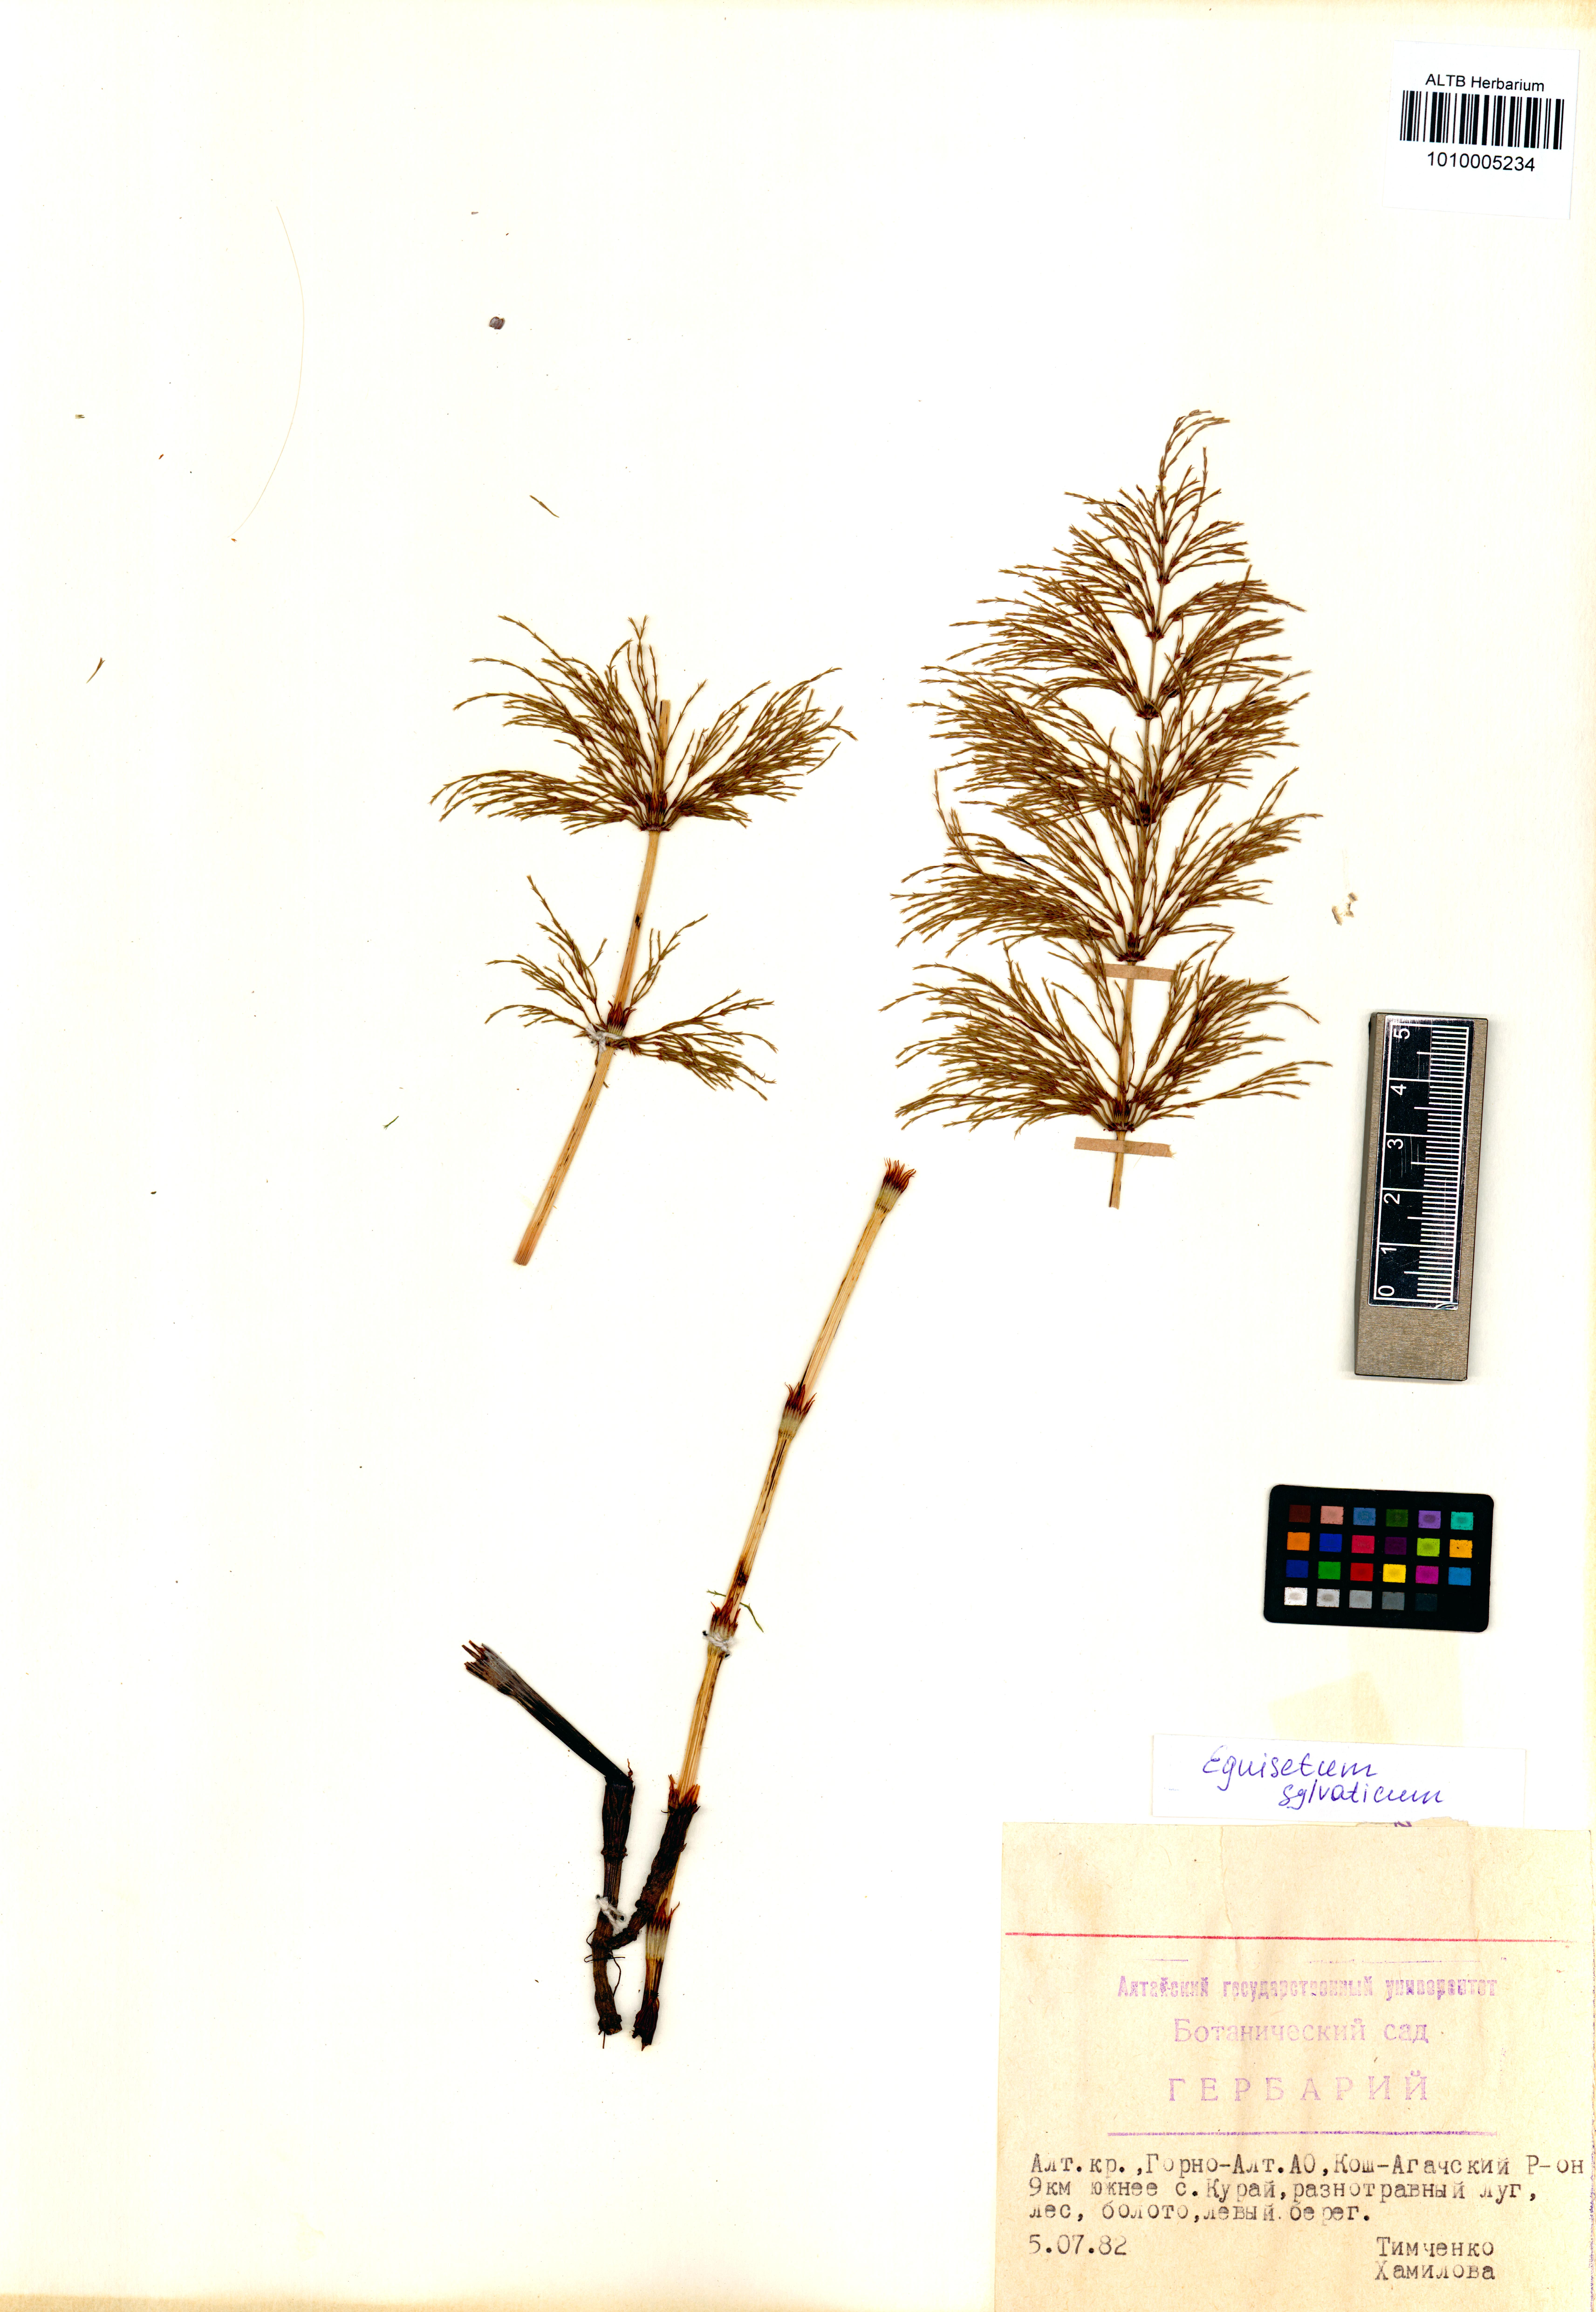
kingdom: Plantae
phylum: Tracheophyta
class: Polypodiopsida
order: Equisetales
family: Equisetaceae
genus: Equisetum
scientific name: Equisetum sylvaticum
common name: Wood horsetail
